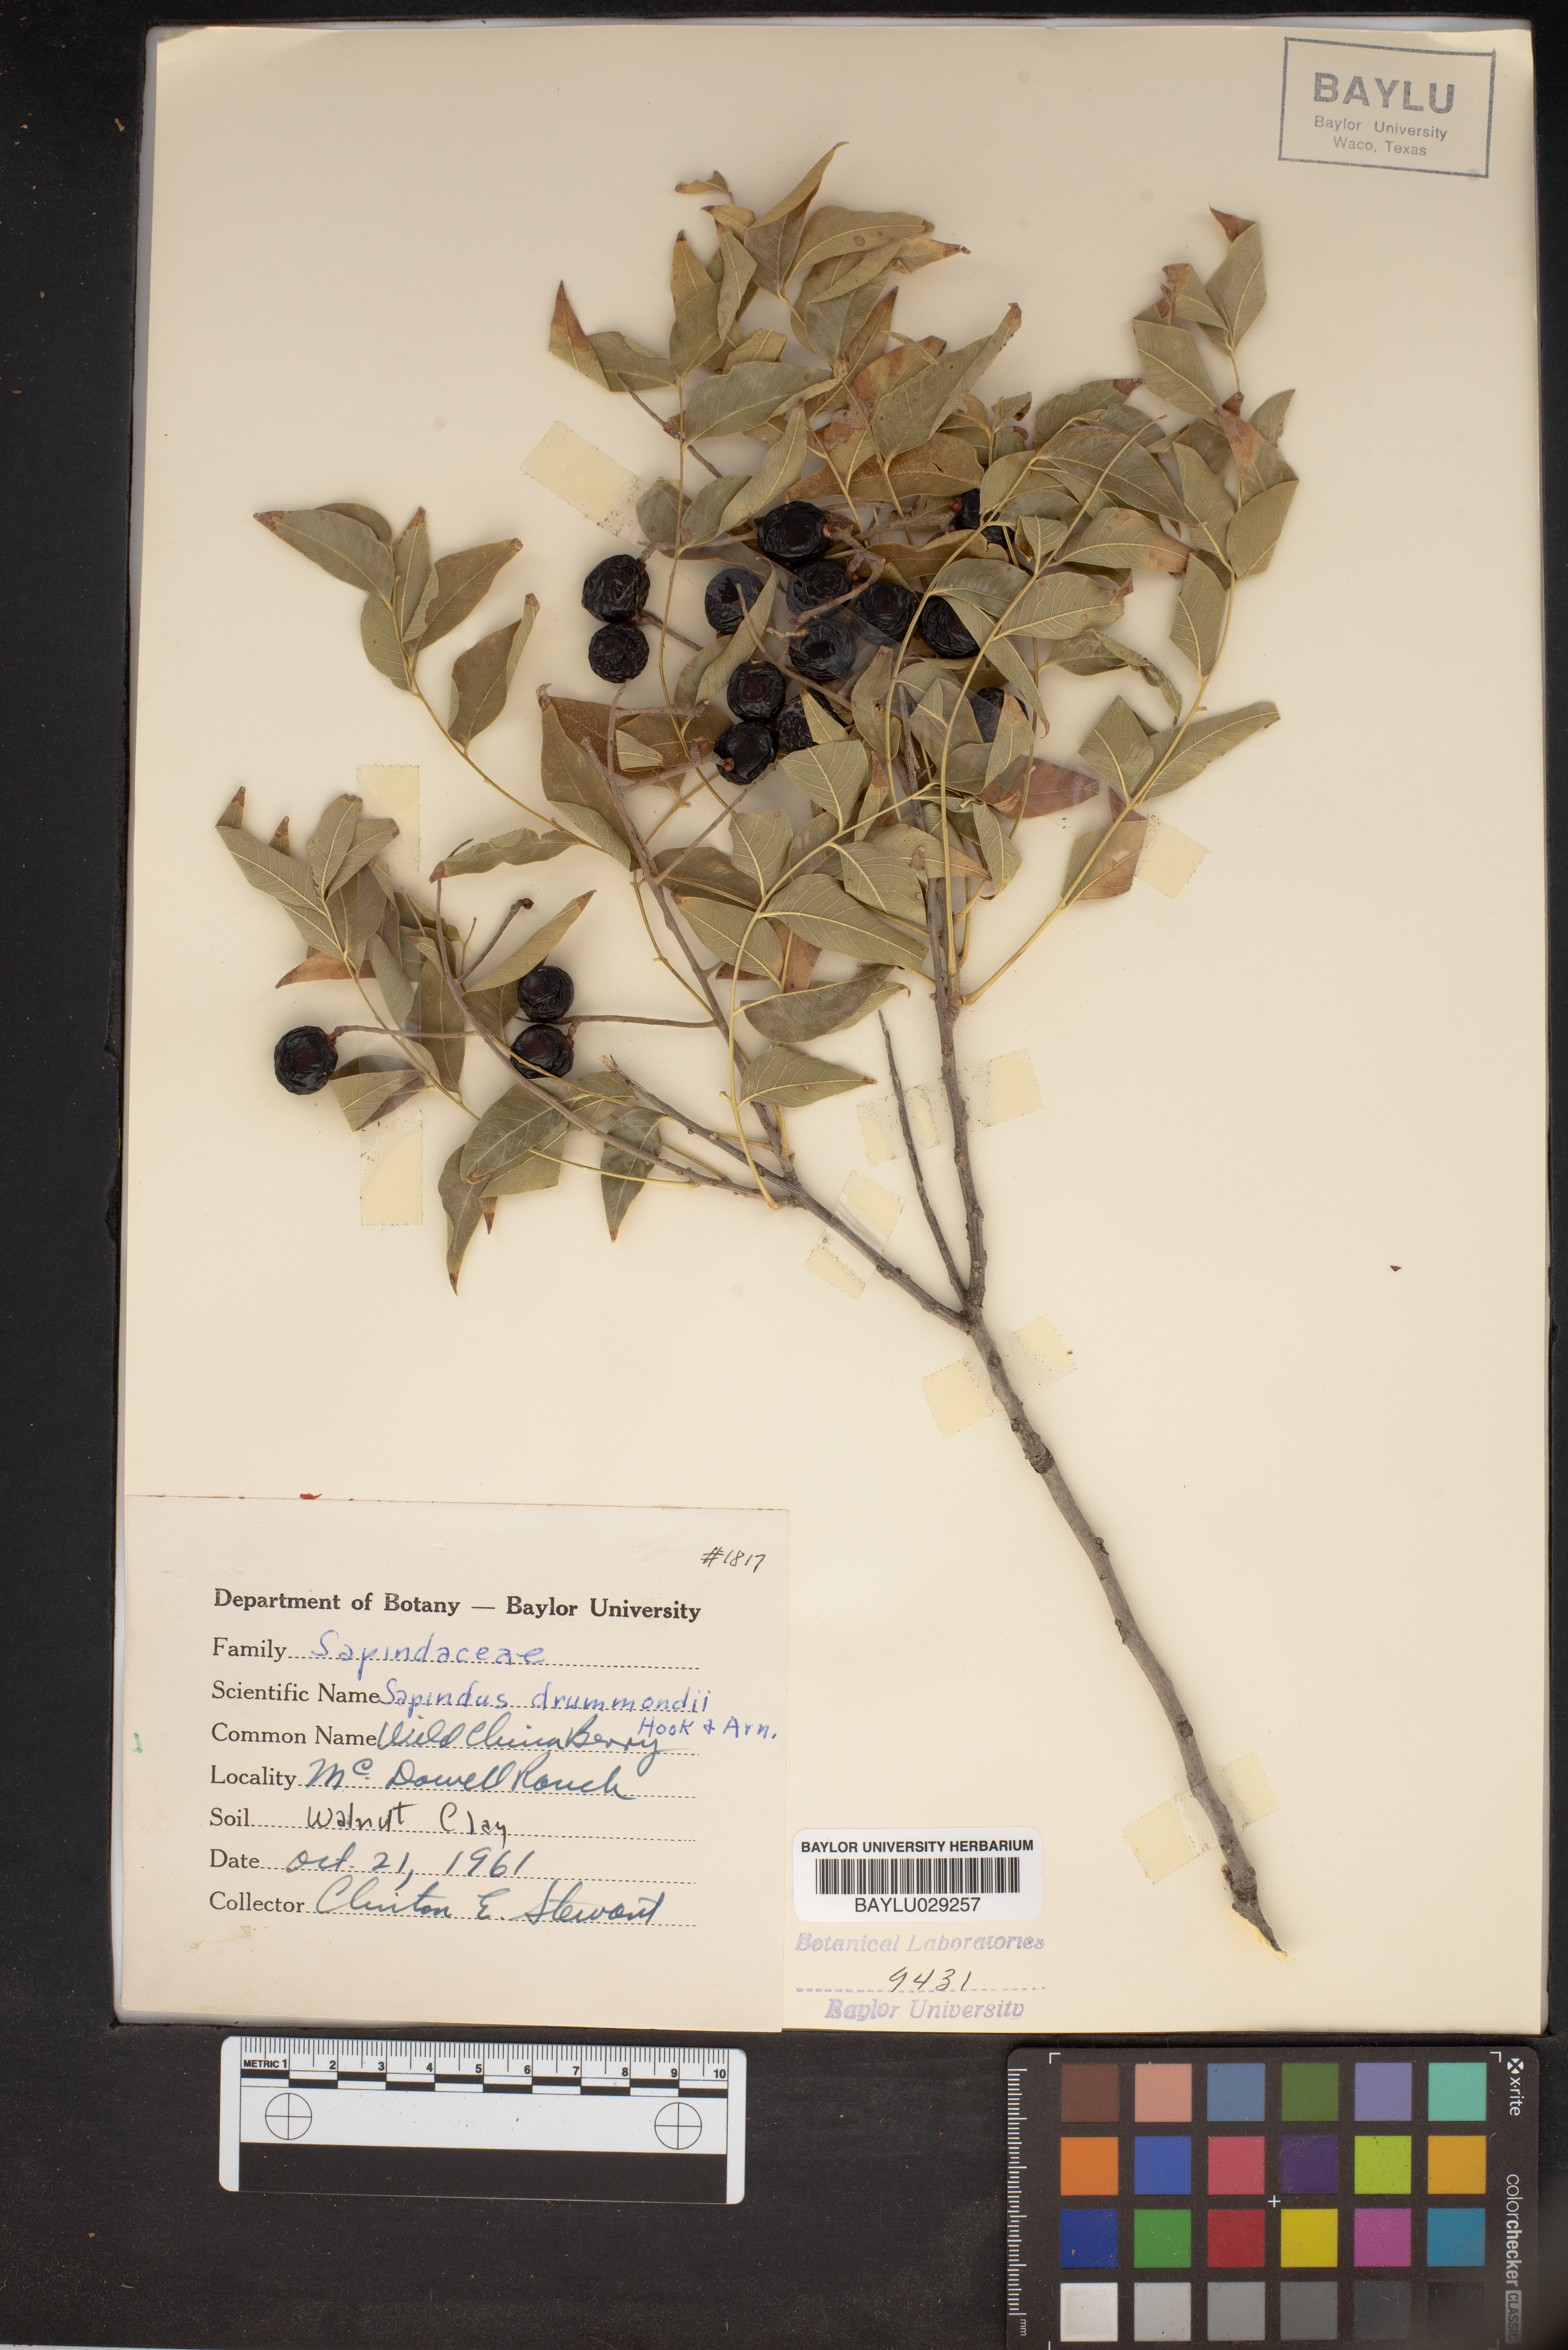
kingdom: Plantae
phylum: Tracheophyta
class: Magnoliopsida
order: Sapindales
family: Sapindaceae
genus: Sapindus
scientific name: Sapindus drummondii
